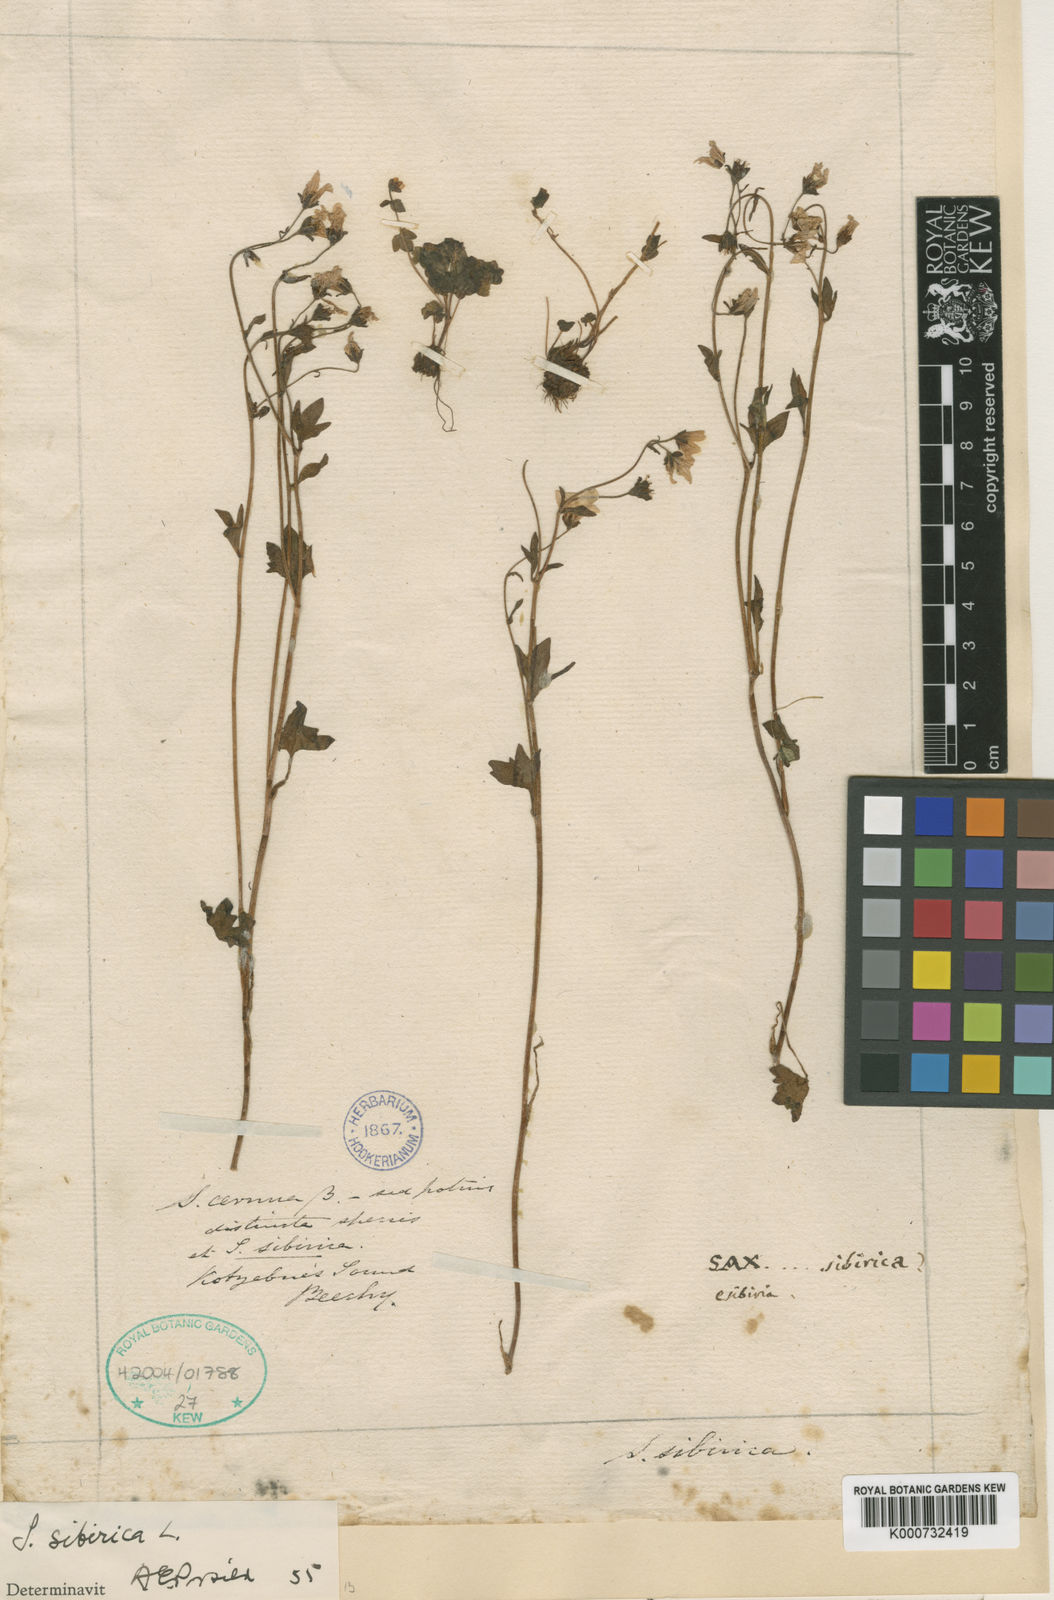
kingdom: Plantae
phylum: Tracheophyta
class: Magnoliopsida
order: Saxifragales
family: Saxifragaceae
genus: Saxifraga
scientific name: Saxifraga sibirica
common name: Siberian saxifrage
